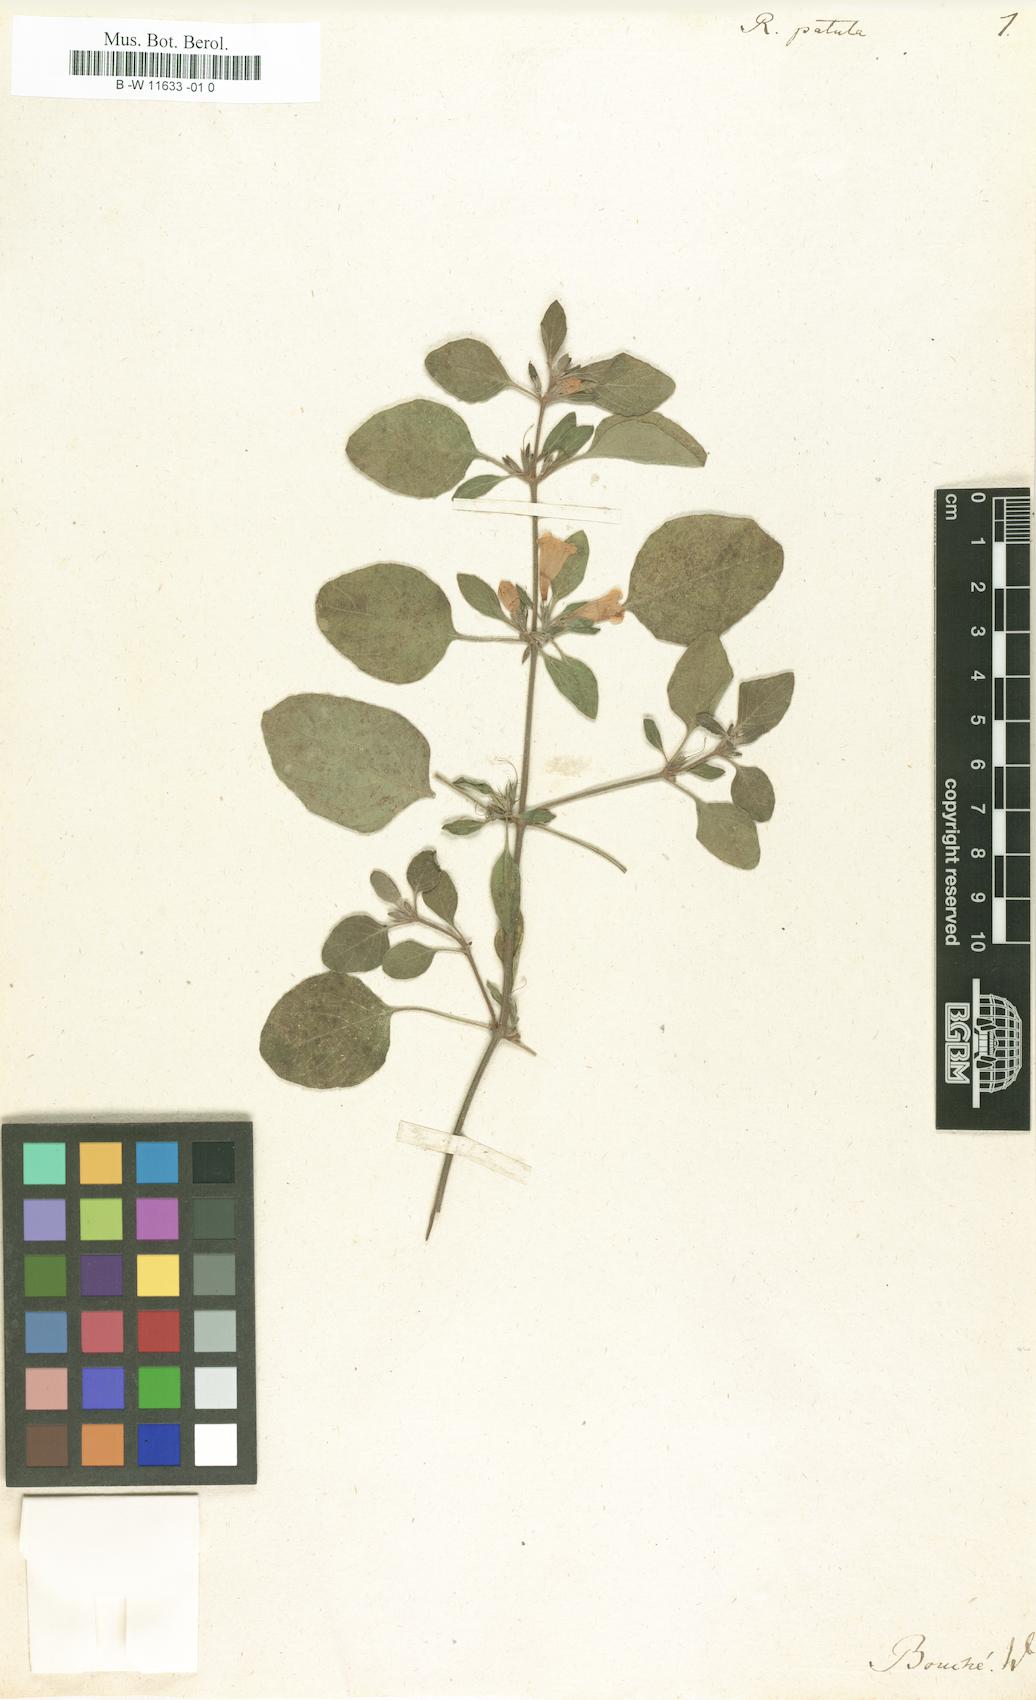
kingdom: Plantae
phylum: Tracheophyta
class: Magnoliopsida
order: Lamiales
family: Acanthaceae
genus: Ruellia
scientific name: Ruellia patula
